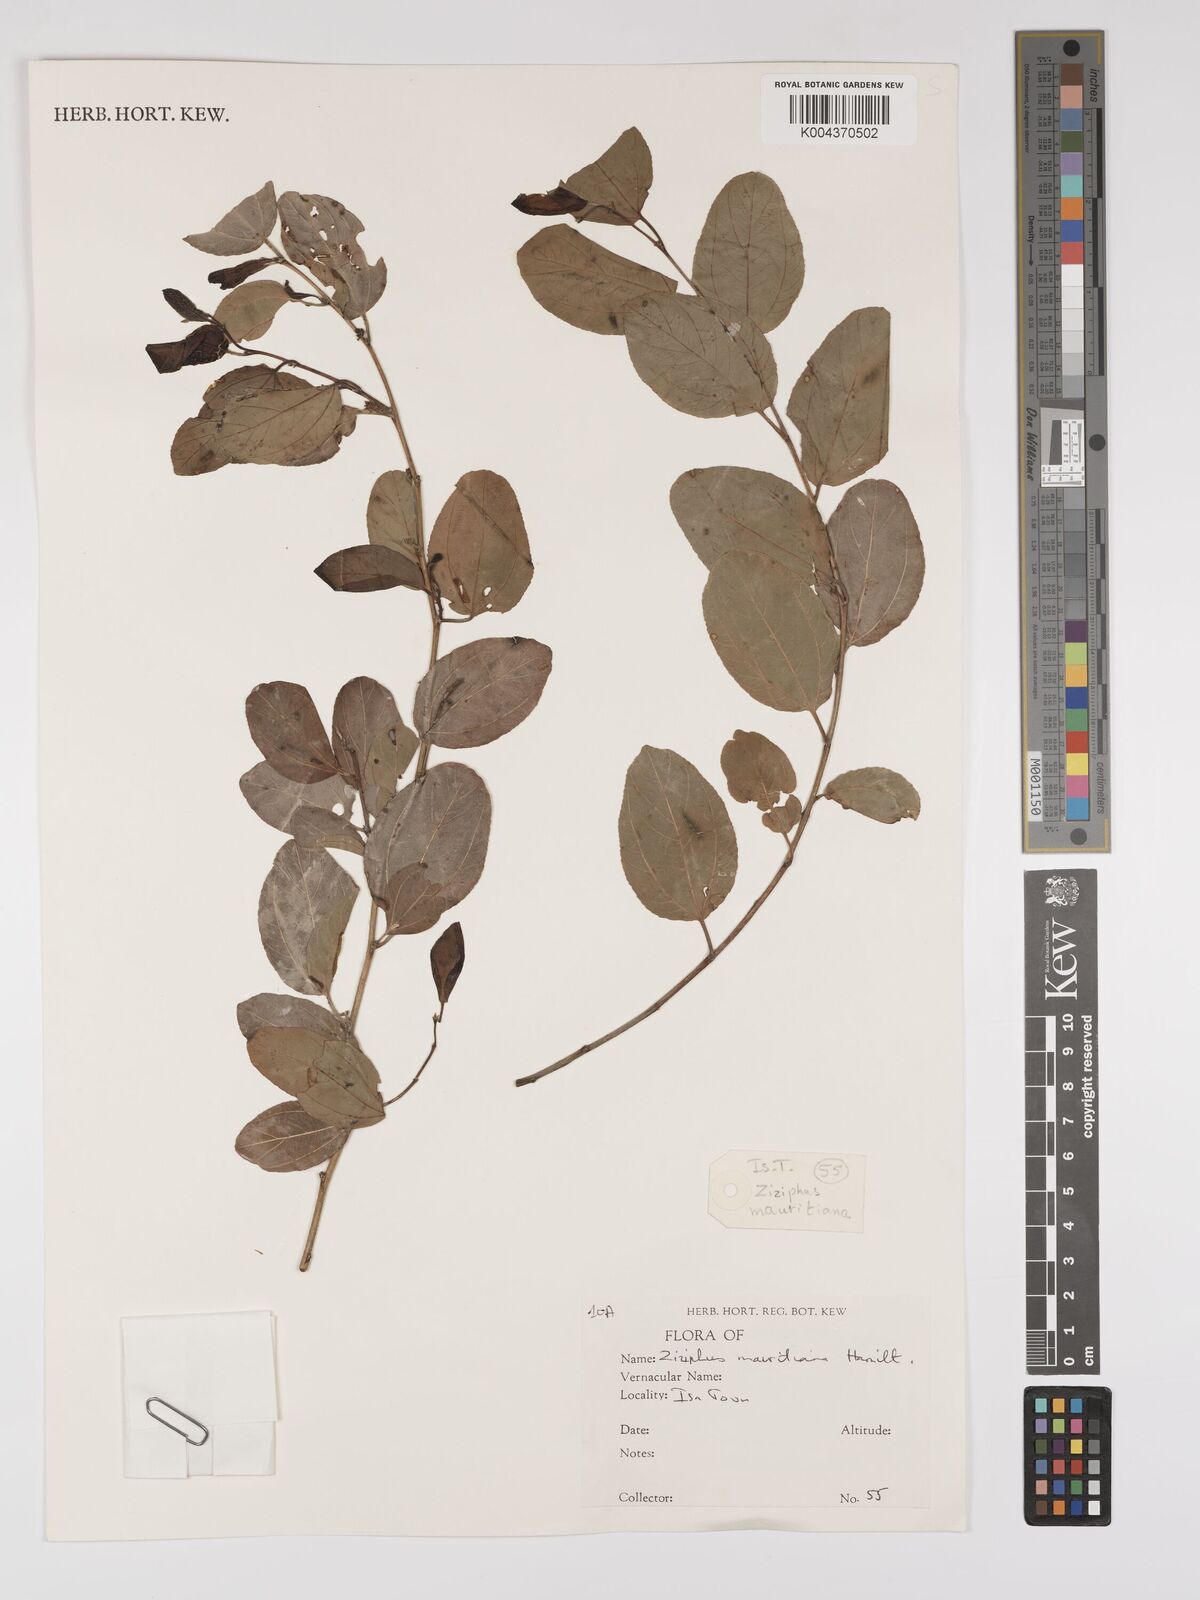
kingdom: Plantae
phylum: Tracheophyta
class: Magnoliopsida
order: Rosales
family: Rhamnaceae
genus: Ziziphus
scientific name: Ziziphus mauritiana
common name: Indian jujube
